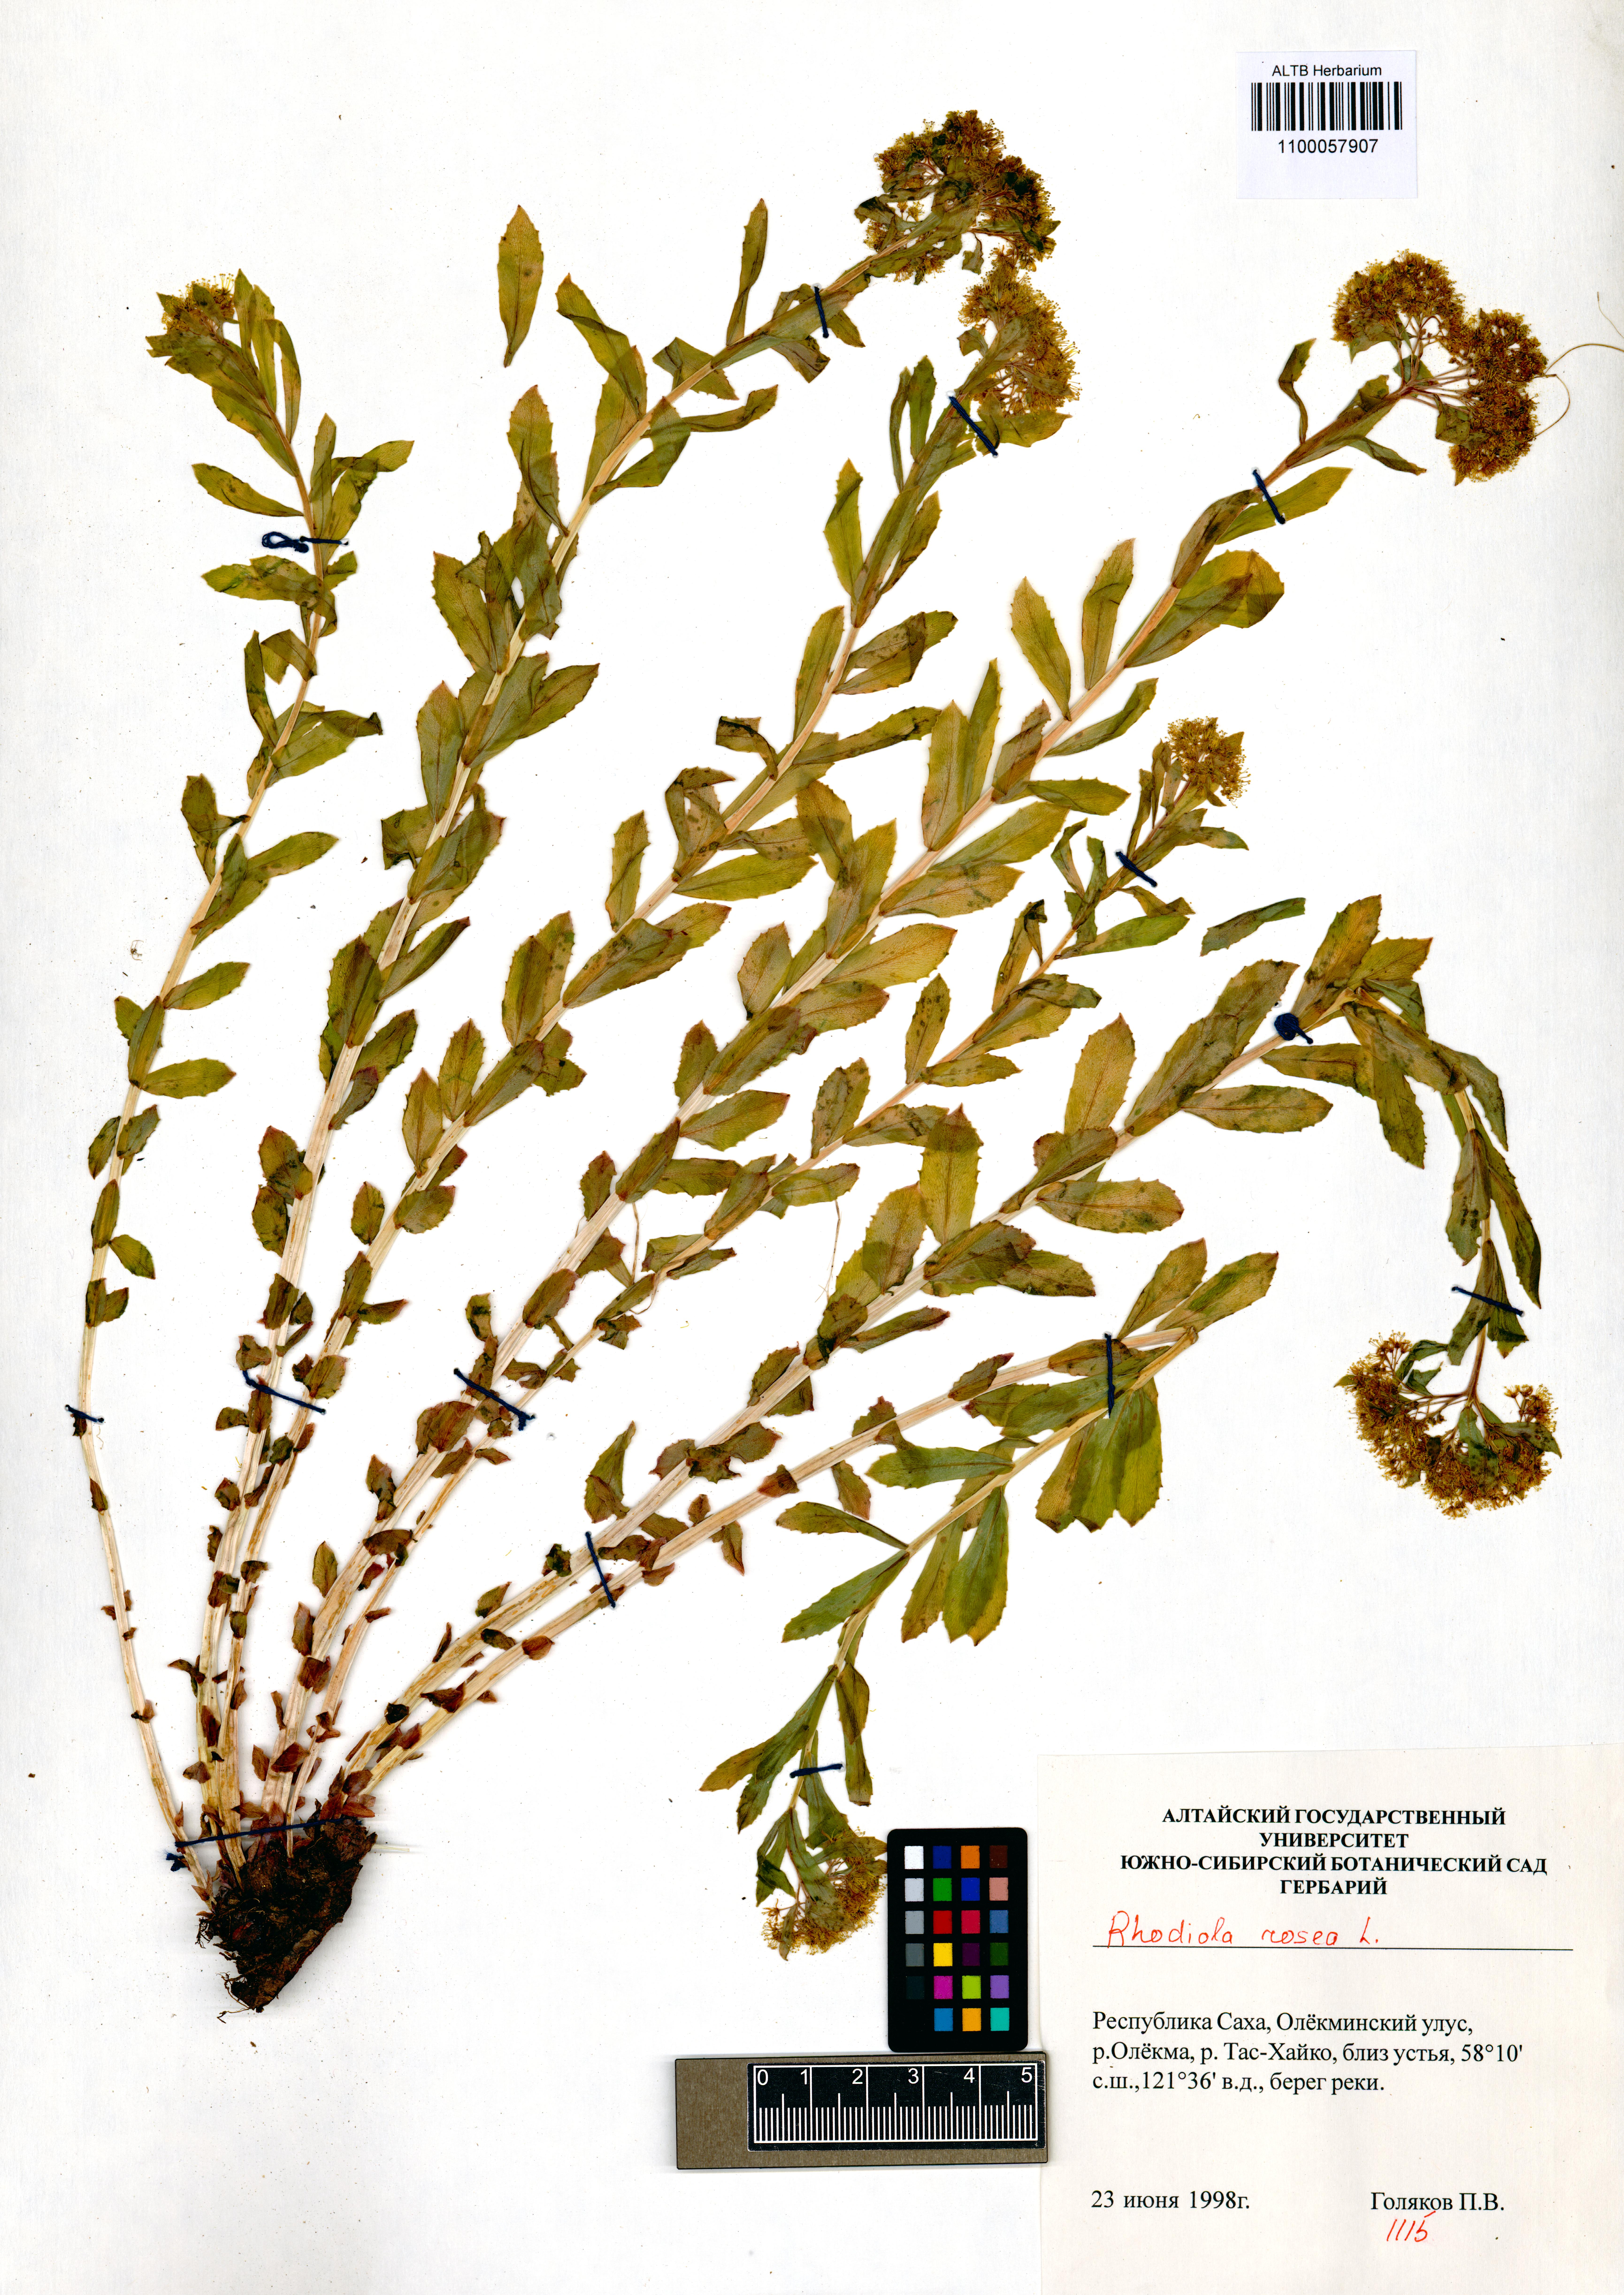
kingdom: Plantae
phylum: Tracheophyta
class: Magnoliopsida
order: Saxifragales
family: Crassulaceae
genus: Rhodiola
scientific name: Rhodiola rosea
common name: Roseroot
